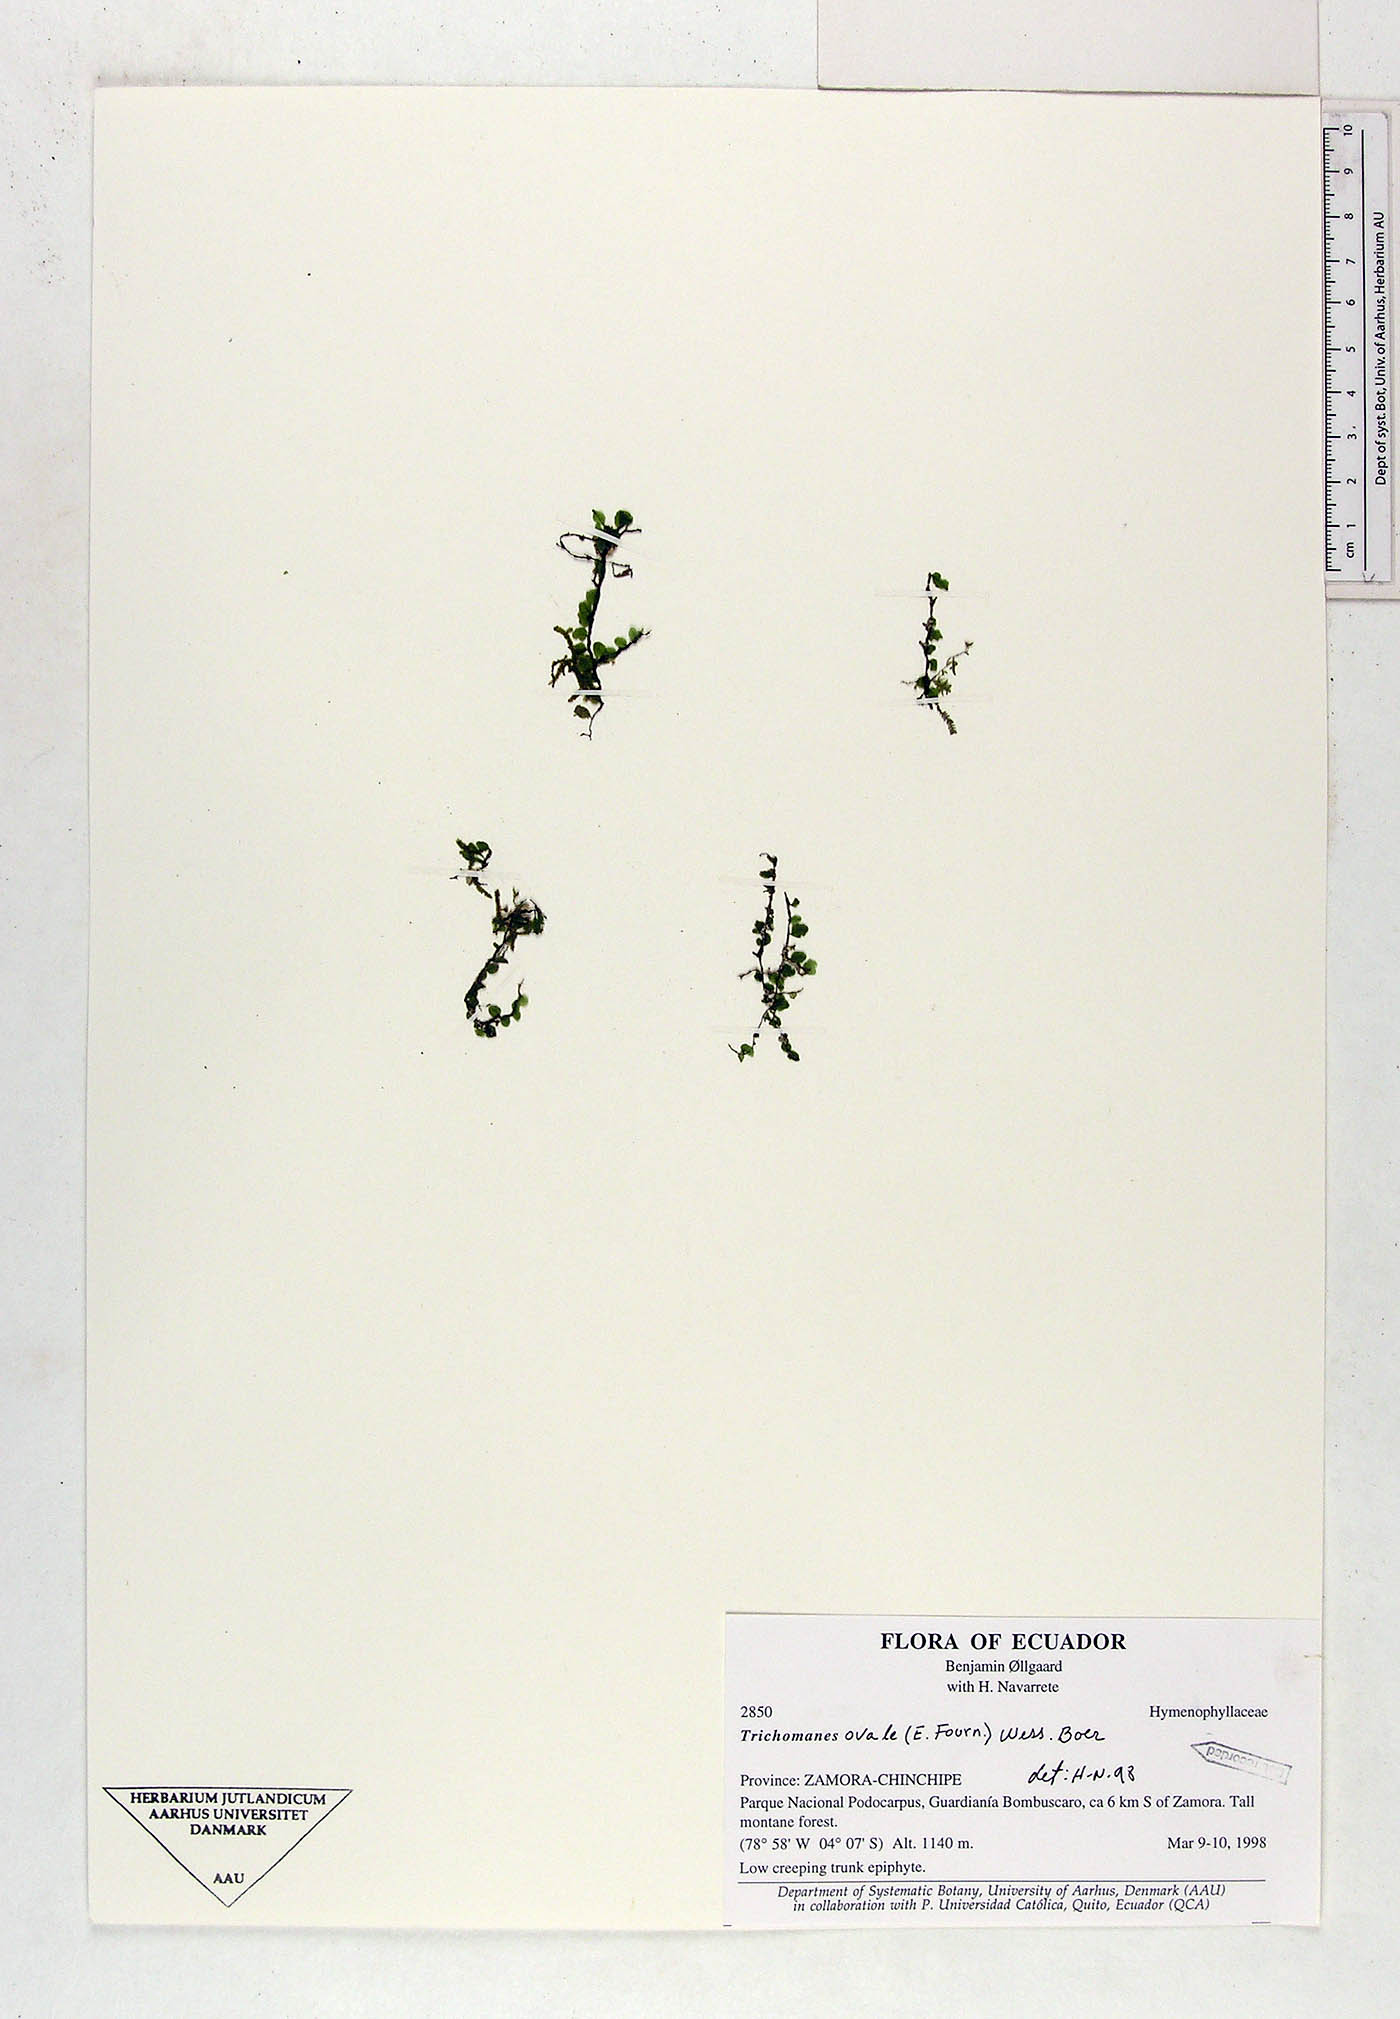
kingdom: Plantae
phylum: Tracheophyta
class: Polypodiopsida
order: Hymenophyllales
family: Hymenophyllaceae
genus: Didymoglossum
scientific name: Didymoglossum ovale
